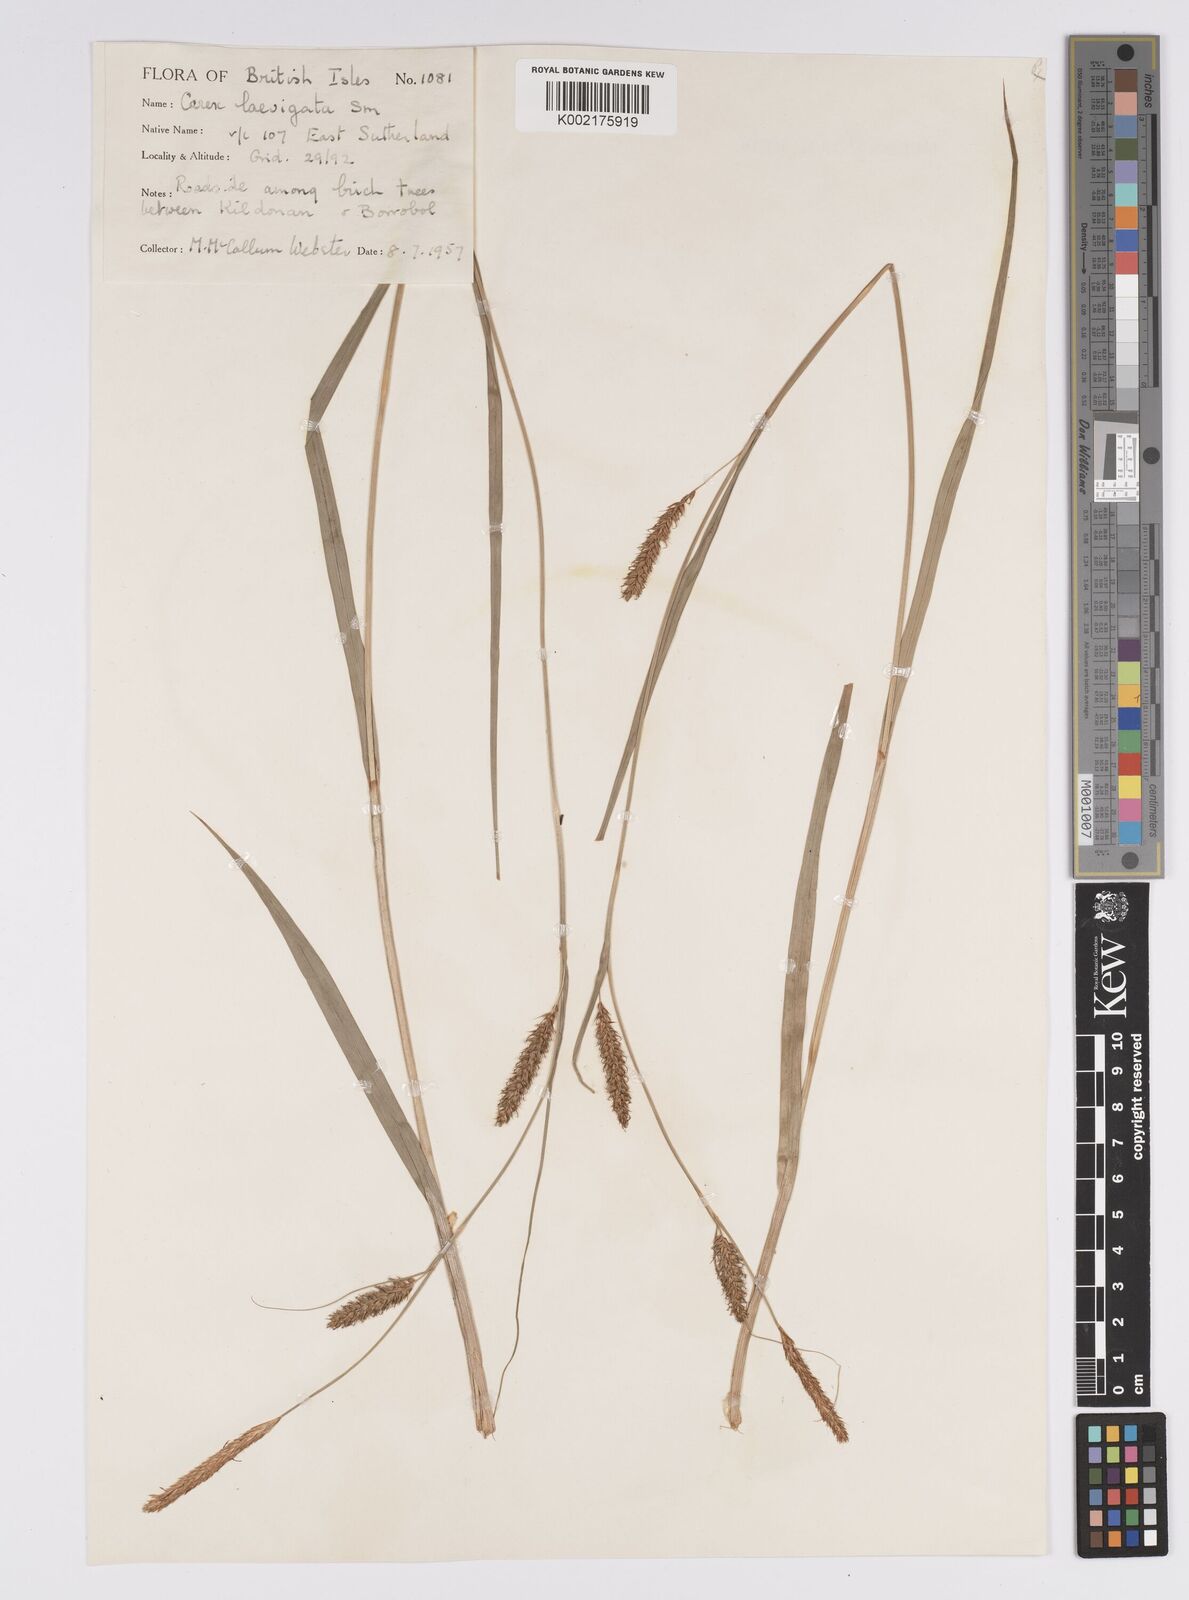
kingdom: Plantae
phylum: Tracheophyta
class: Liliopsida
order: Poales
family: Cyperaceae
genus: Carex
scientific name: Carex laevigata
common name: Smooth-stalked sedge
